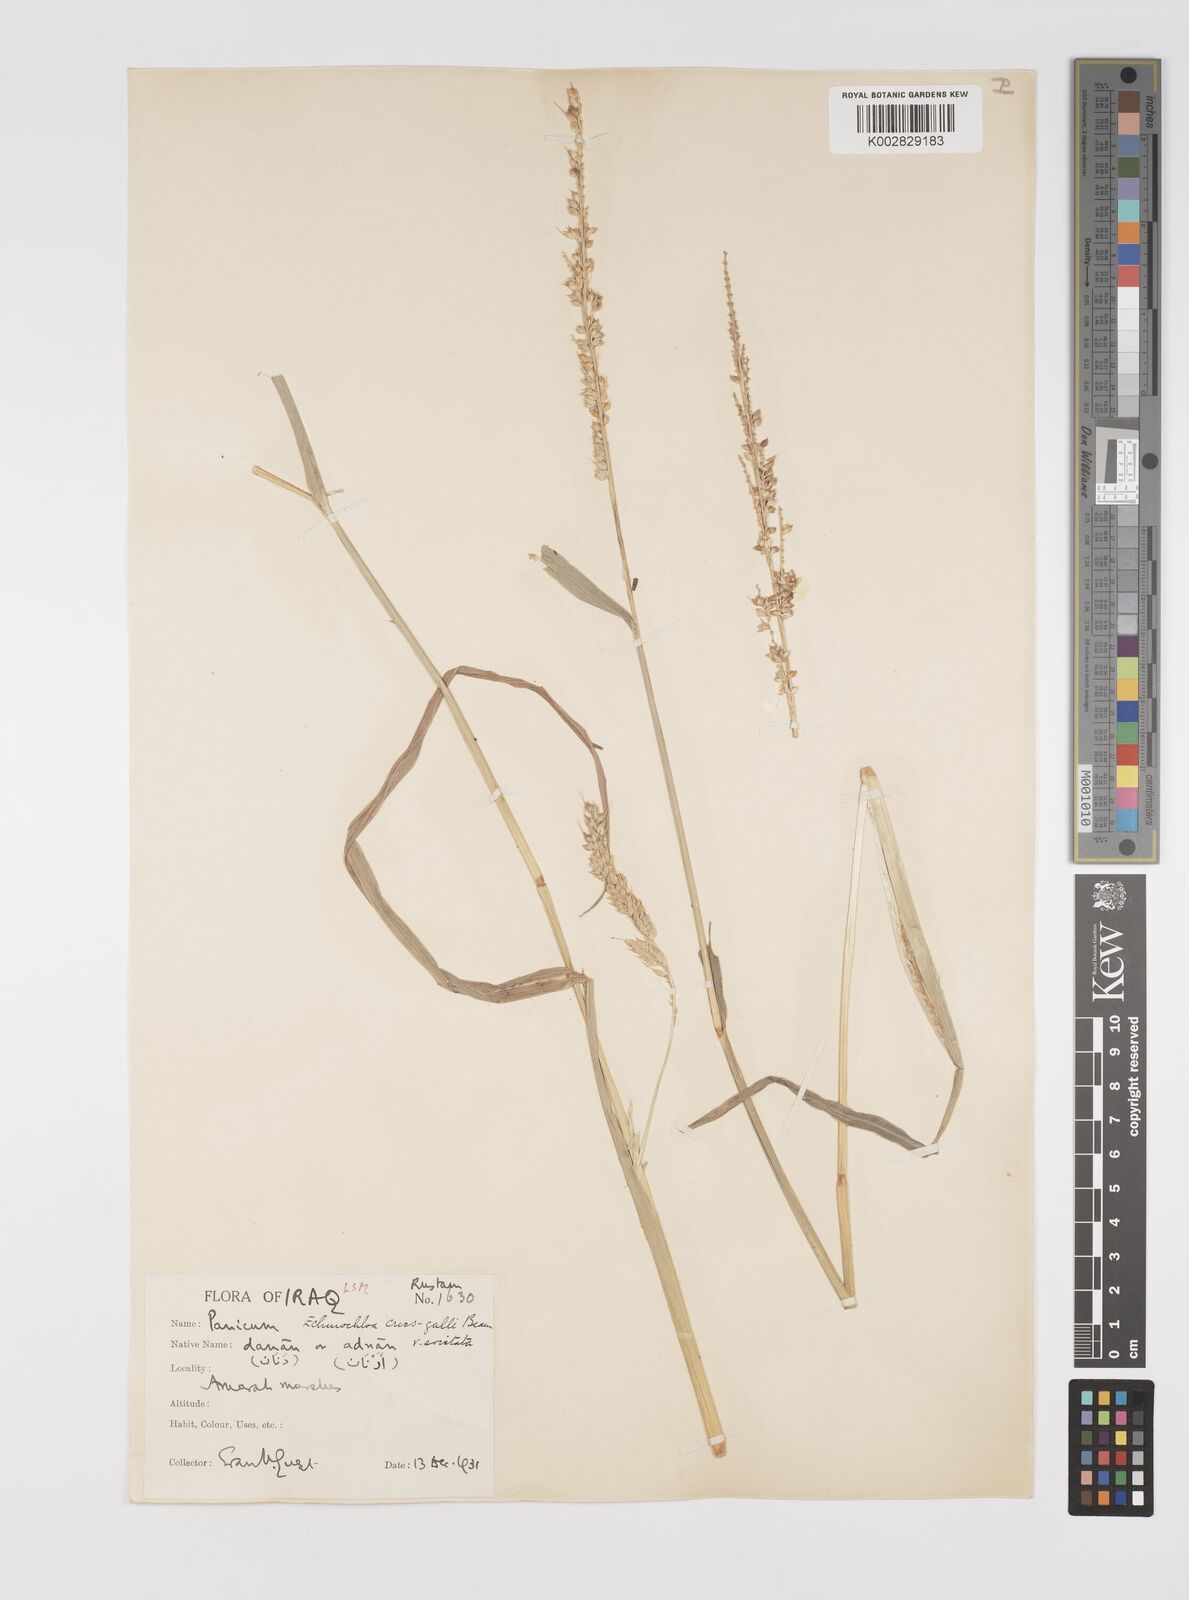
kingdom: Plantae
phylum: Tracheophyta
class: Liliopsida
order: Poales
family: Poaceae
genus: Echinochloa
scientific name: Echinochloa crus-galli
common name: Cockspur
